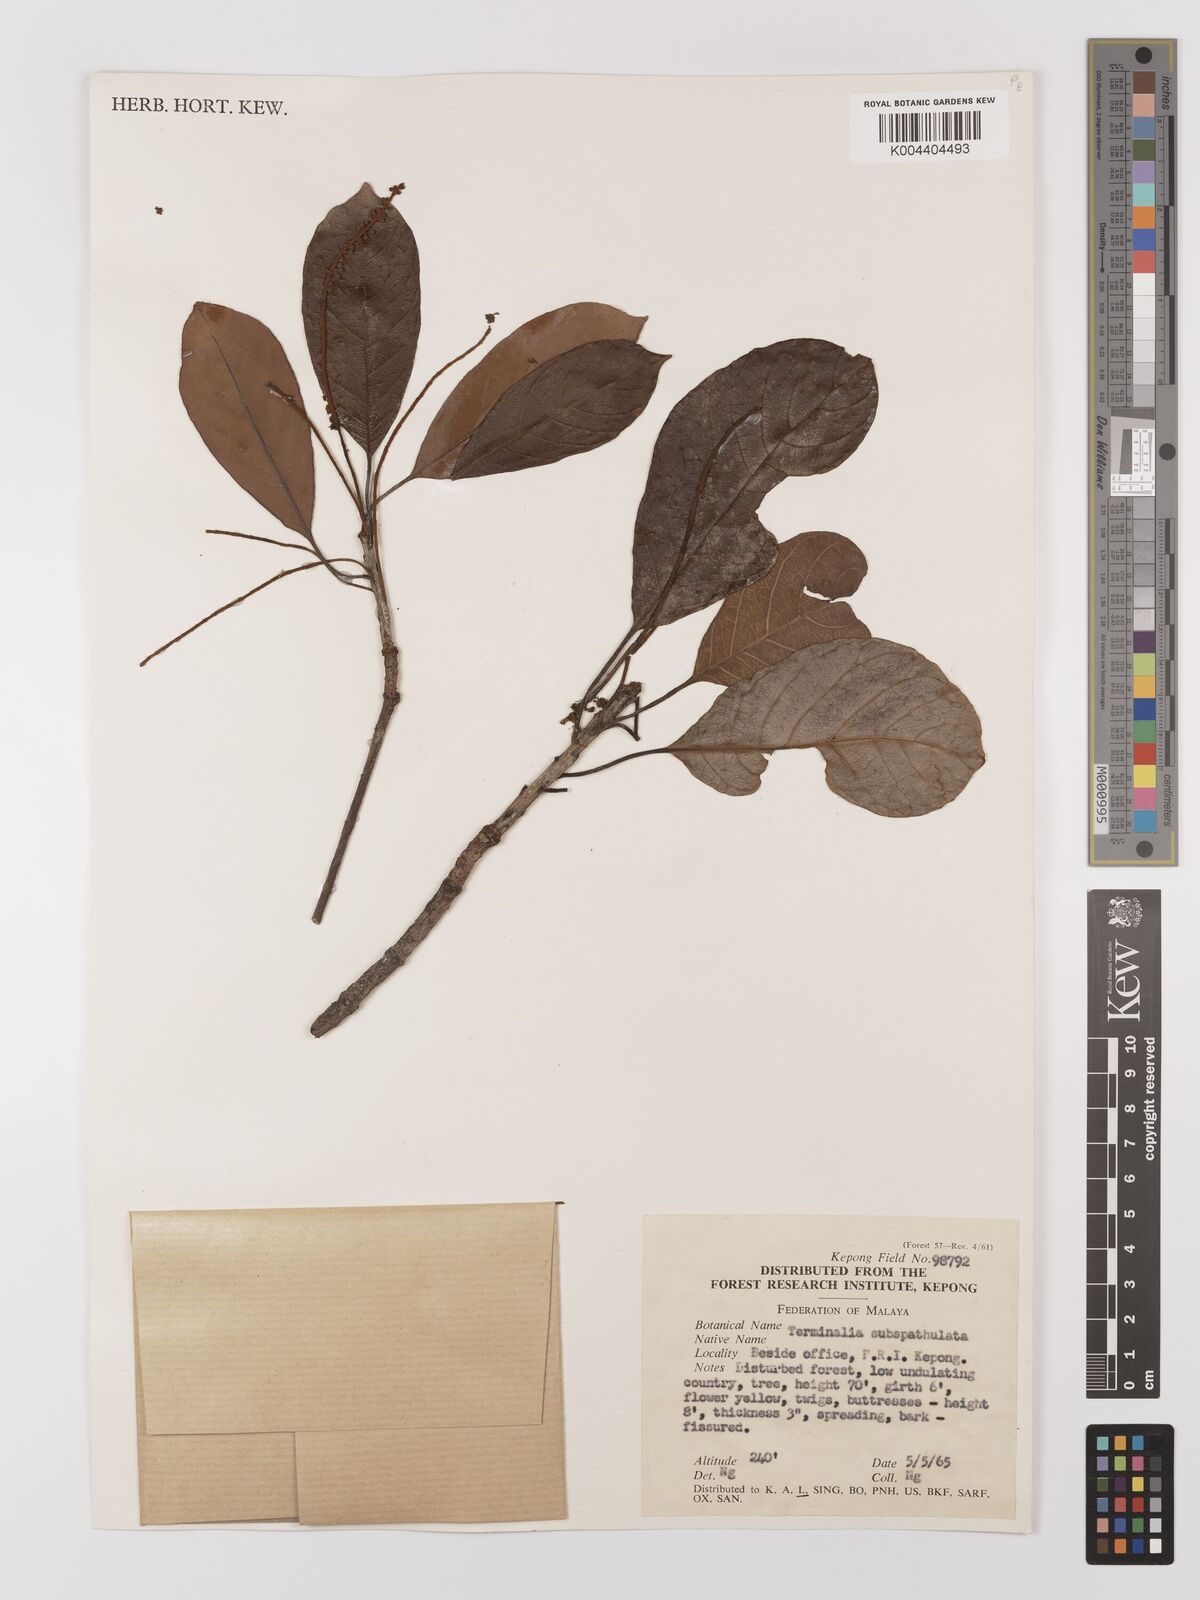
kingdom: Plantae
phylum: Tracheophyta
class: Magnoliopsida
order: Myrtales
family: Combretaceae
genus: Terminalia
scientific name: Terminalia subspathulata
